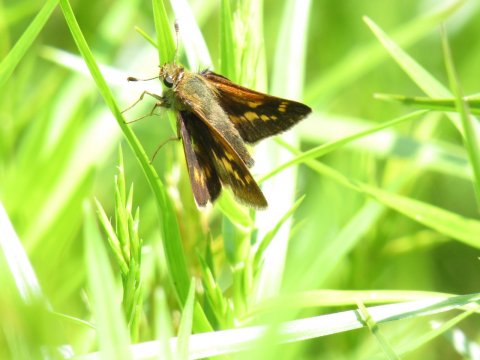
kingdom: Animalia
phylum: Arthropoda
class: Insecta
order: Lepidoptera
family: Hesperiidae
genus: Polites
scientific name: Polites
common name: Long Dash Skipper
